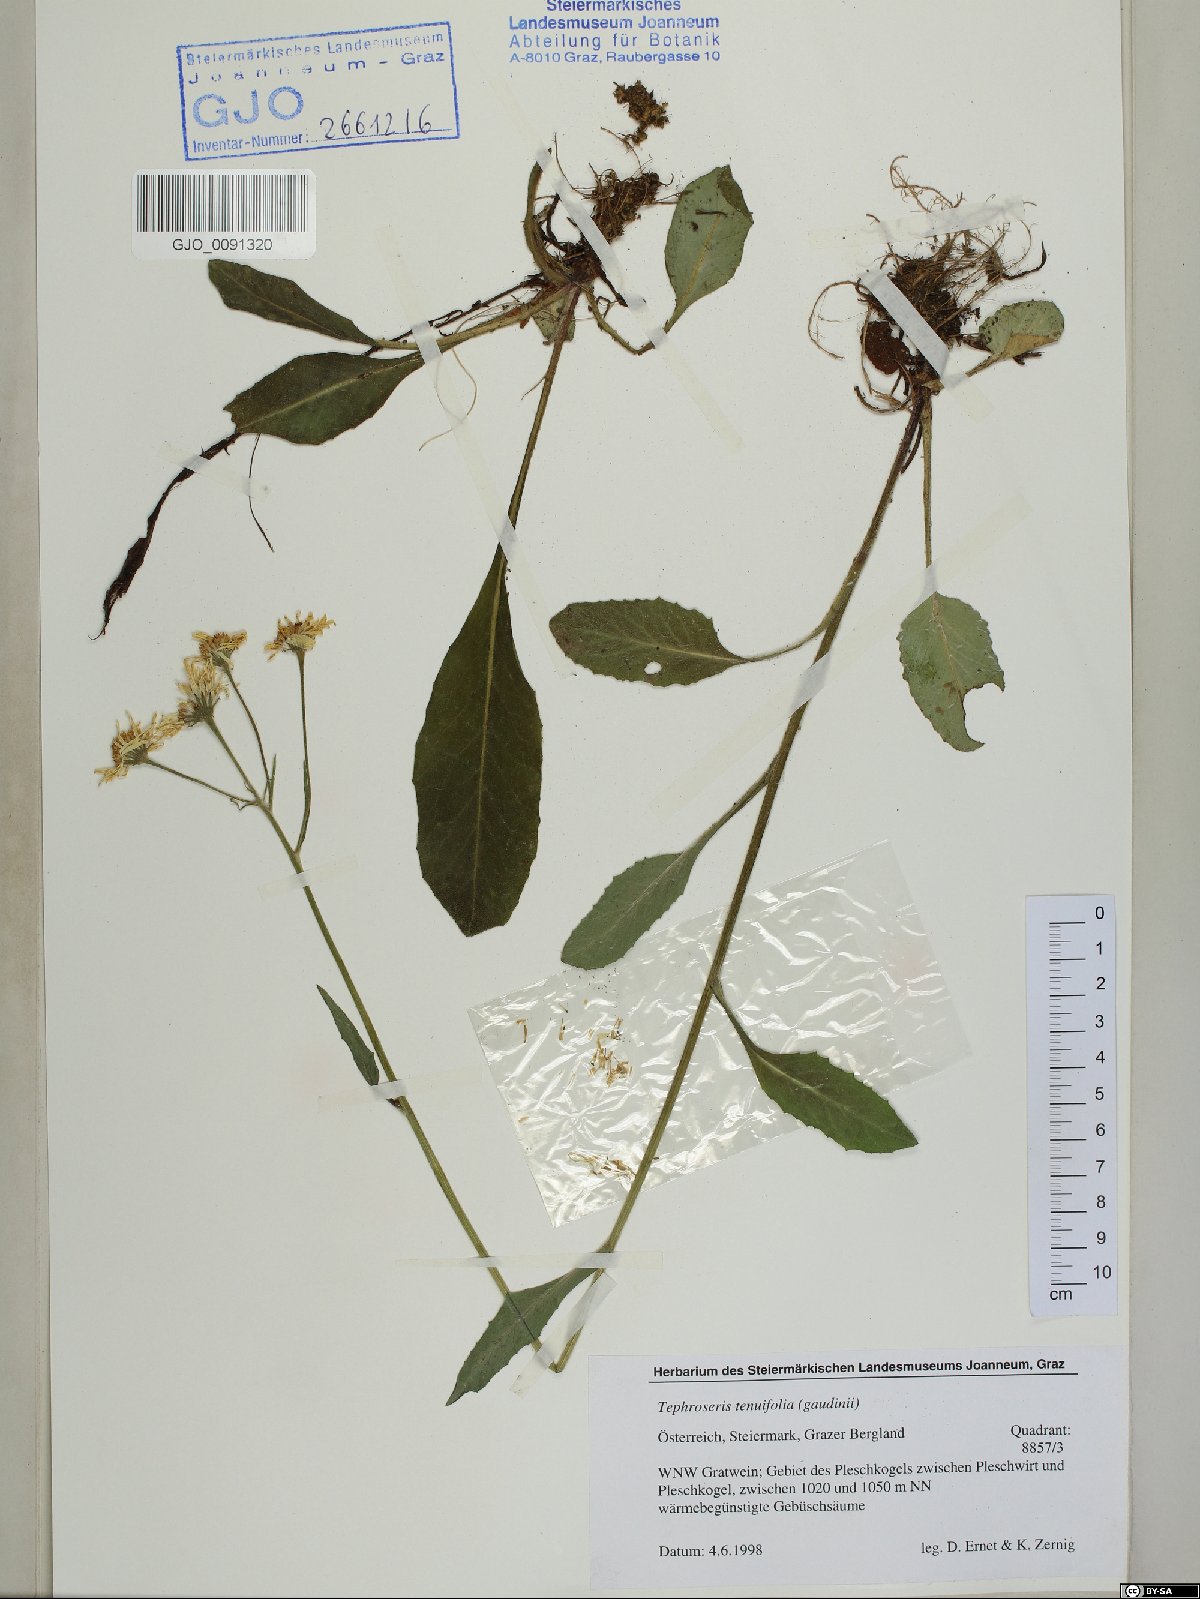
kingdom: Plantae
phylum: Tracheophyta
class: Magnoliopsida
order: Asterales
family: Asteraceae
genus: Tephroseris
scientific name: Tephroseris tenuifolia
